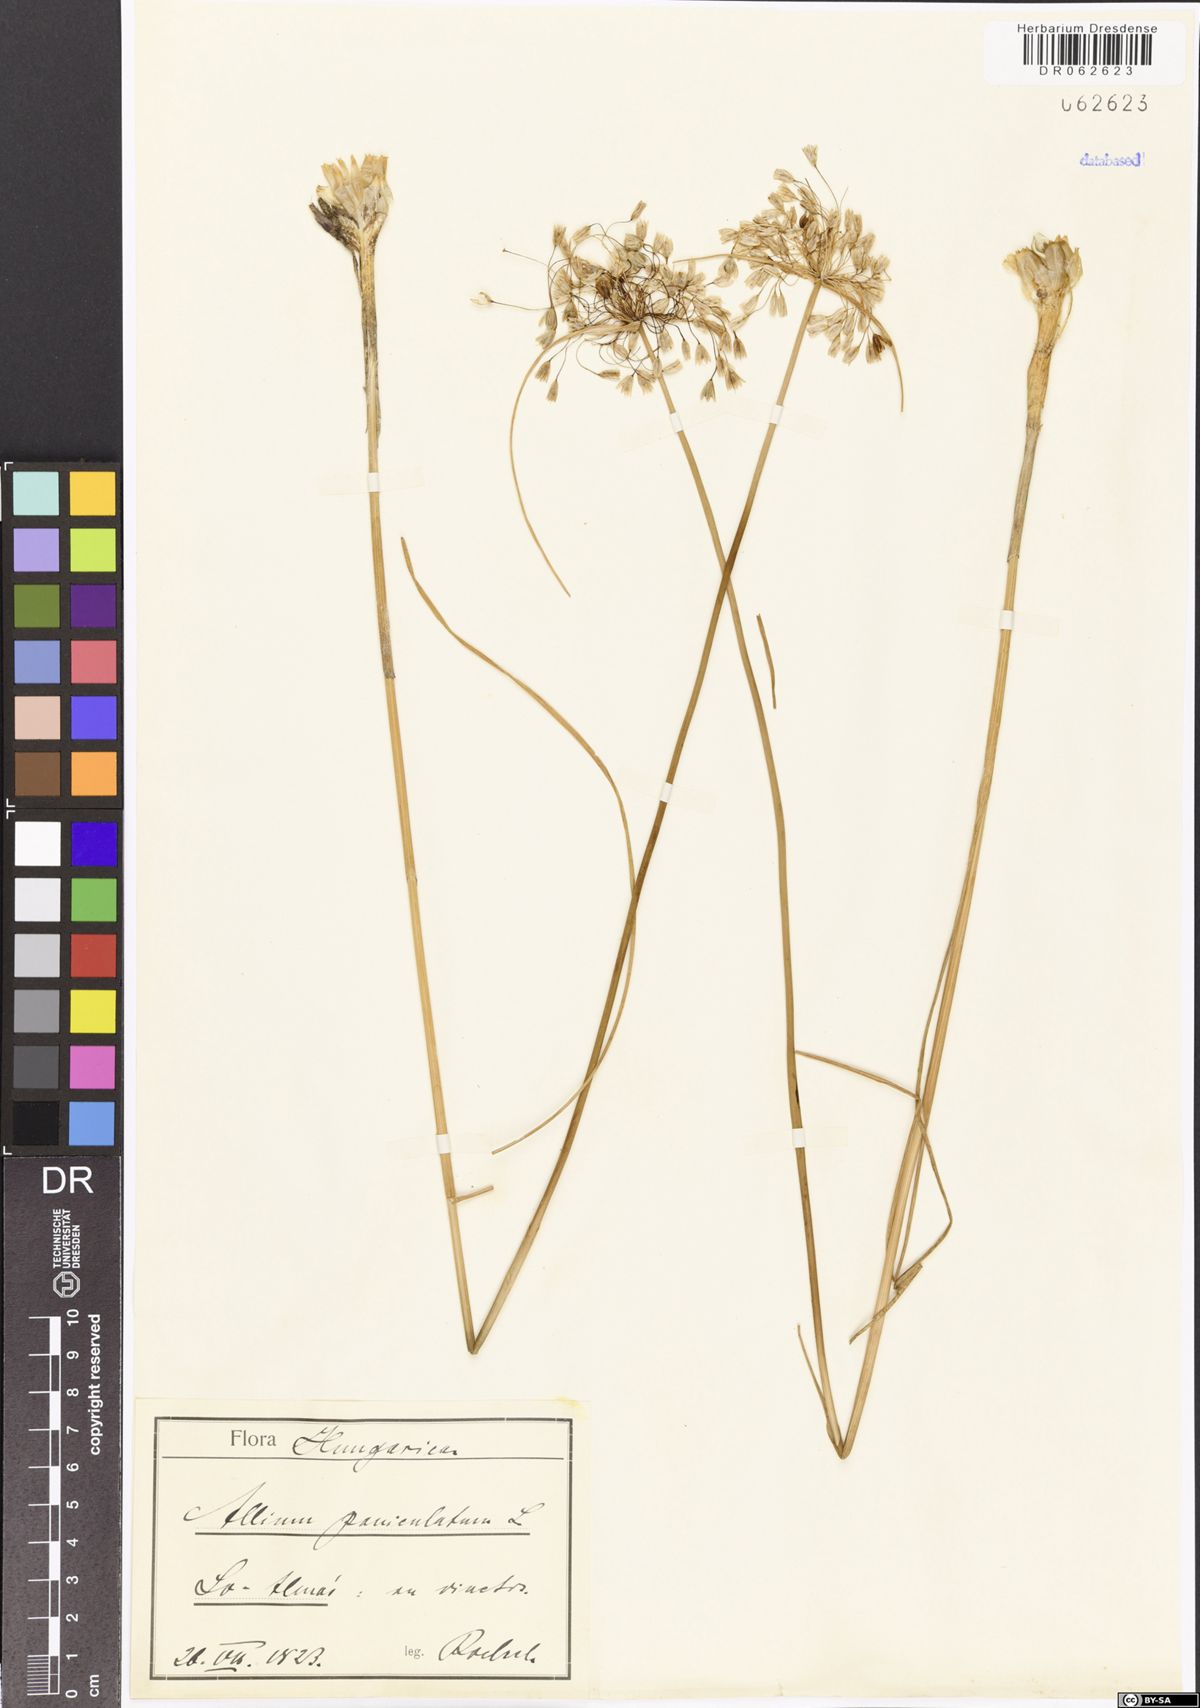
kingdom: Plantae
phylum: Tracheophyta
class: Liliopsida
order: Asparagales
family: Amaryllidaceae
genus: Allium
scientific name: Allium paniculatum
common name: Pale garlic
